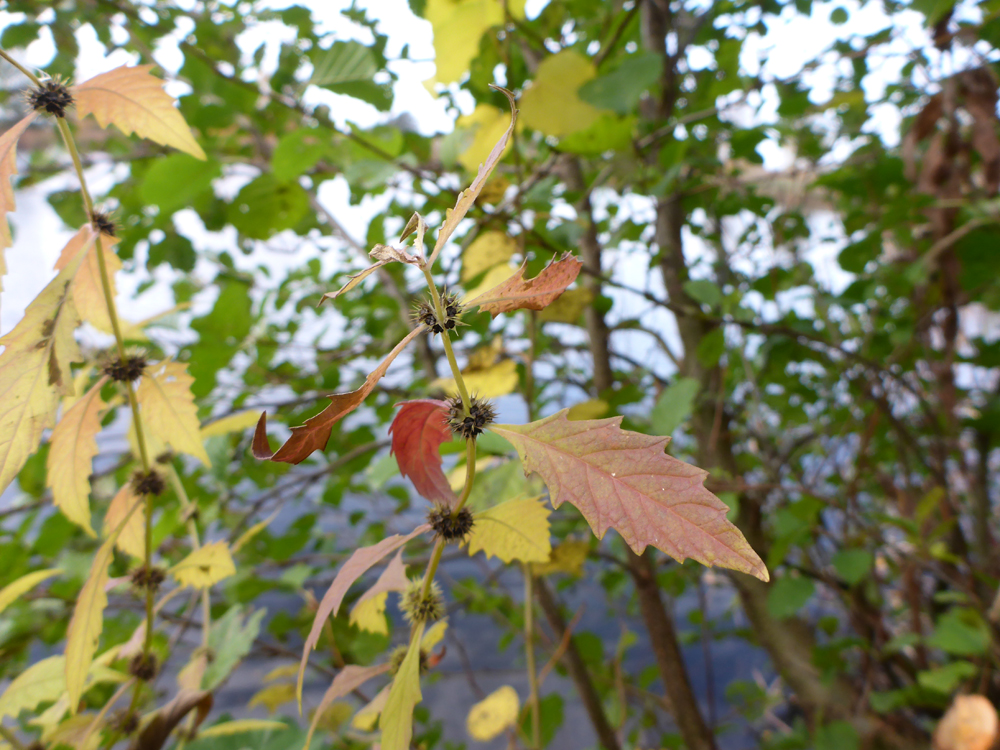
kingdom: Plantae
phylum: Tracheophyta
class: Magnoliopsida
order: Lamiales
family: Lamiaceae
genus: Lycopus
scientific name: Lycopus europaeus
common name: European bugleweed
